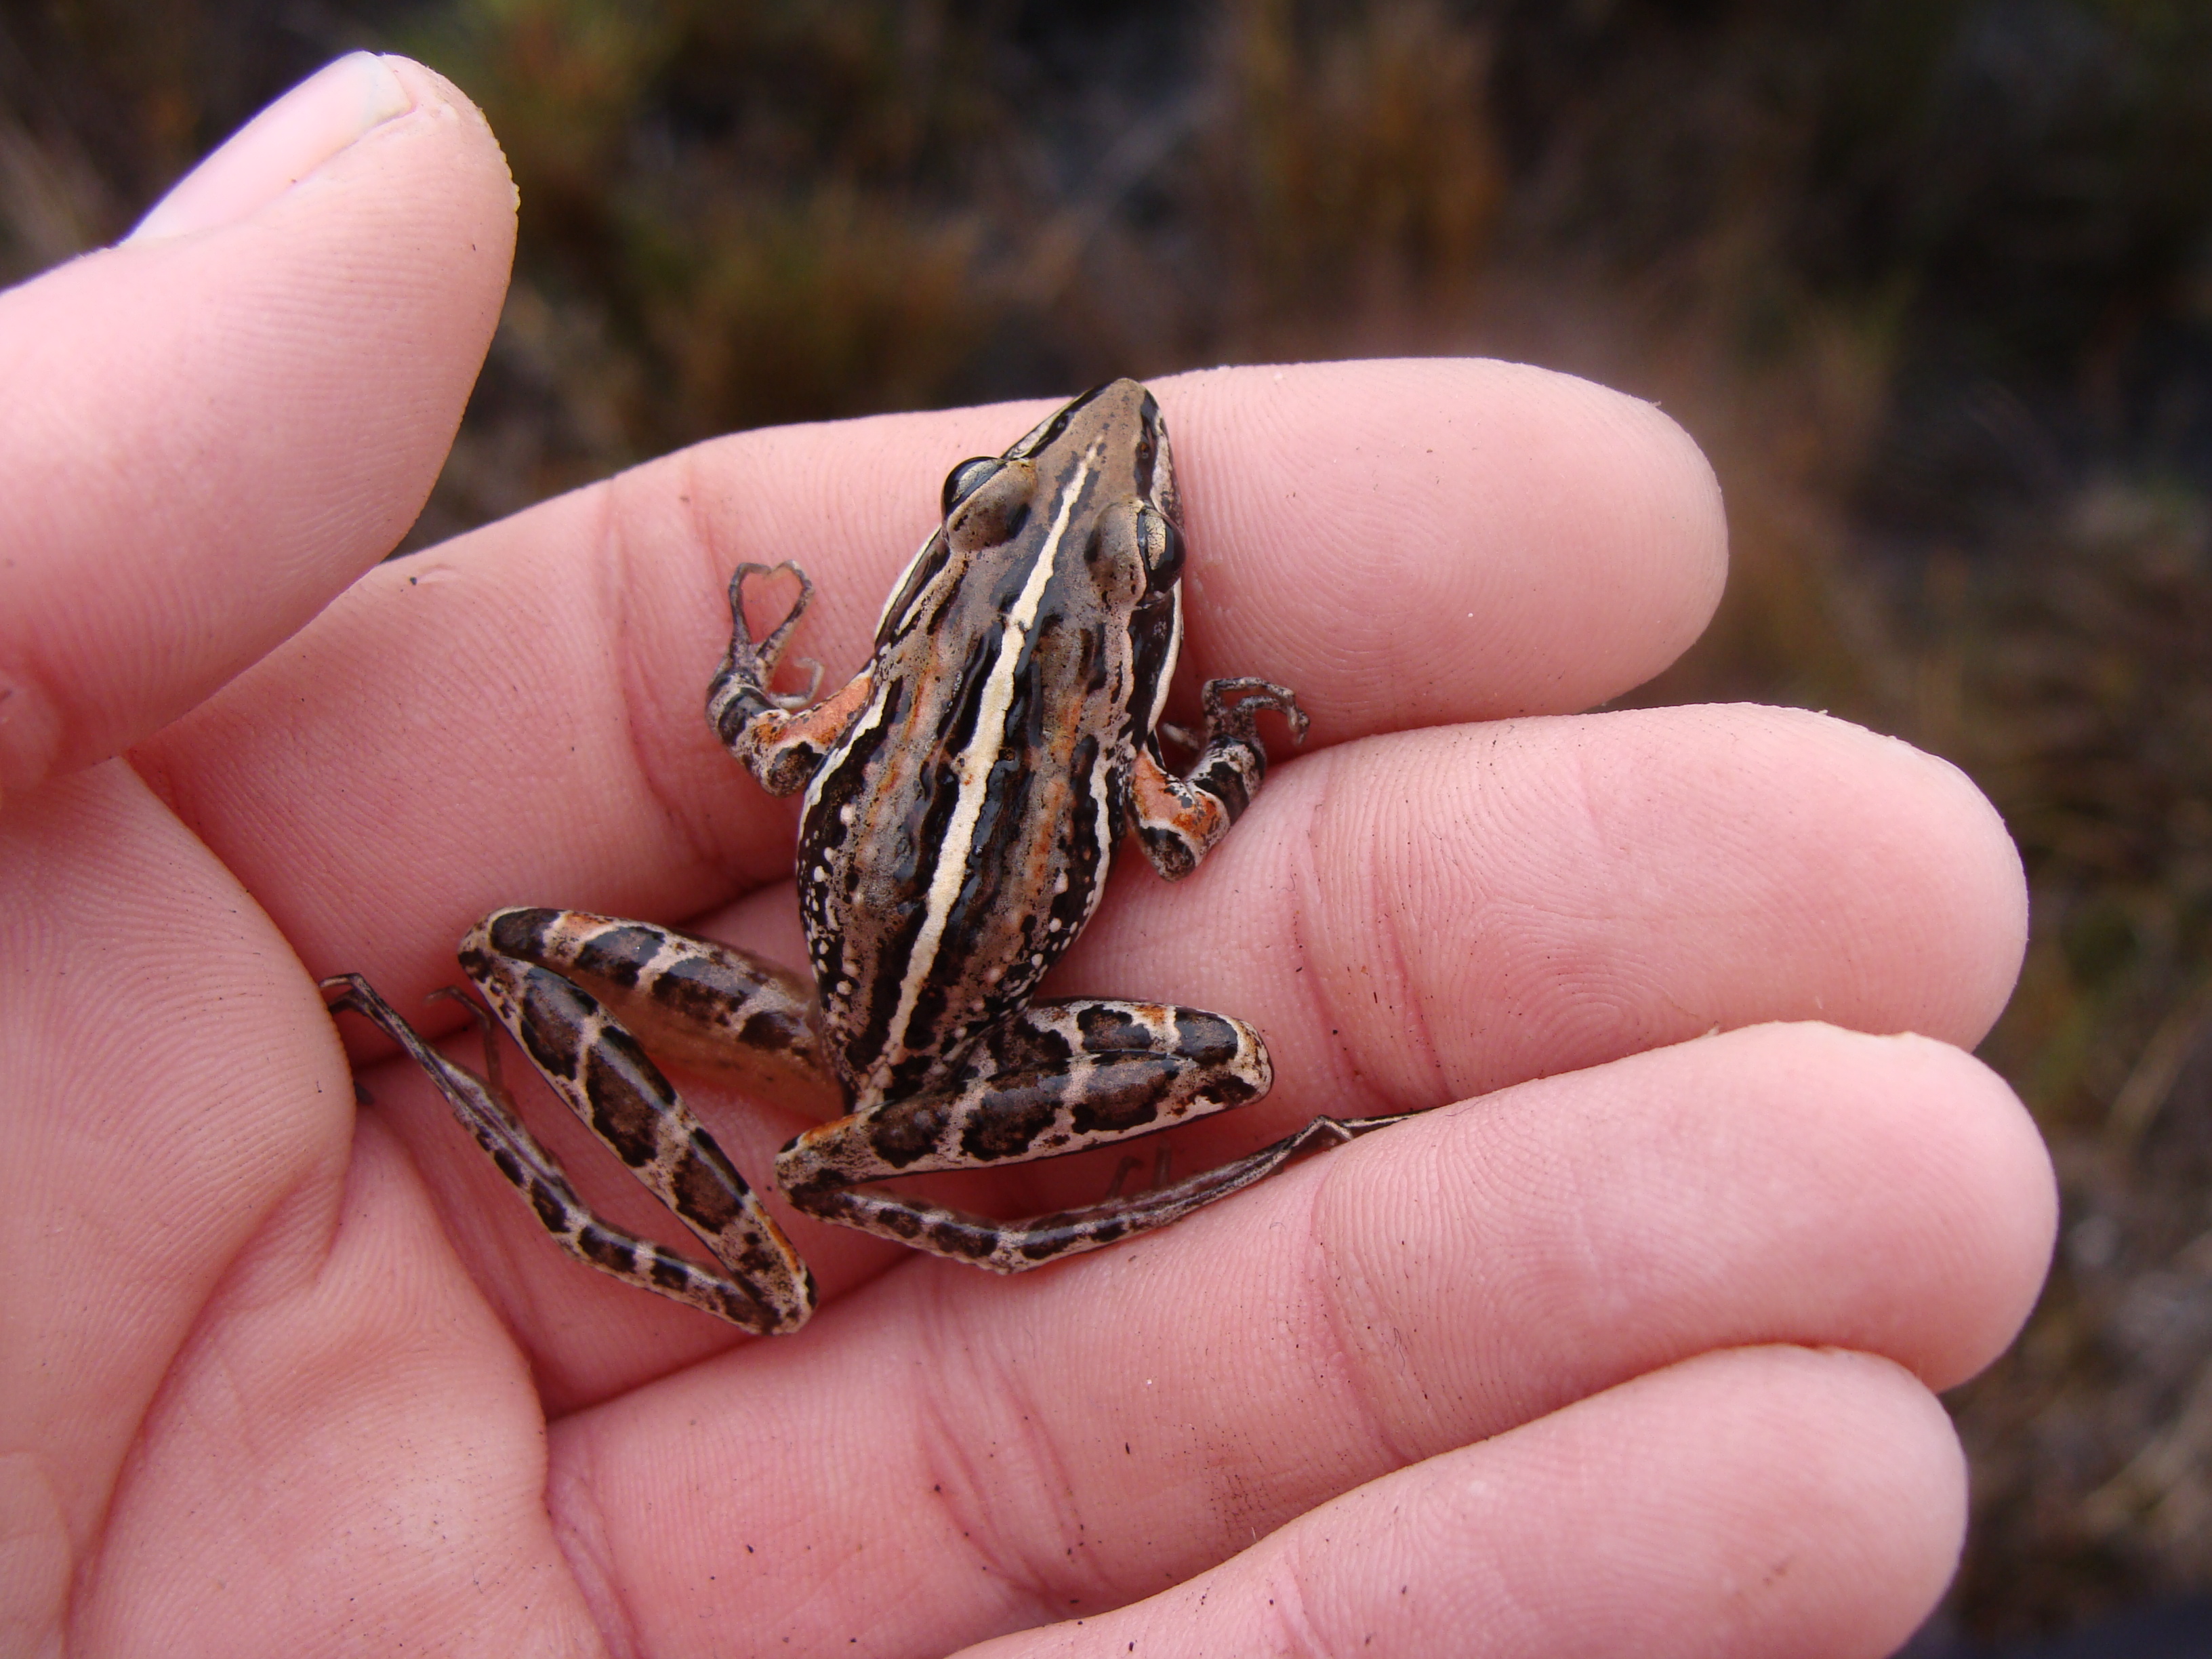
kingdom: Animalia
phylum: Chordata
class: Amphibia
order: Anura
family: Pyxicephalidae
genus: Strongylopus
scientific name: Strongylopus bonaespei
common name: Banded stream frog
